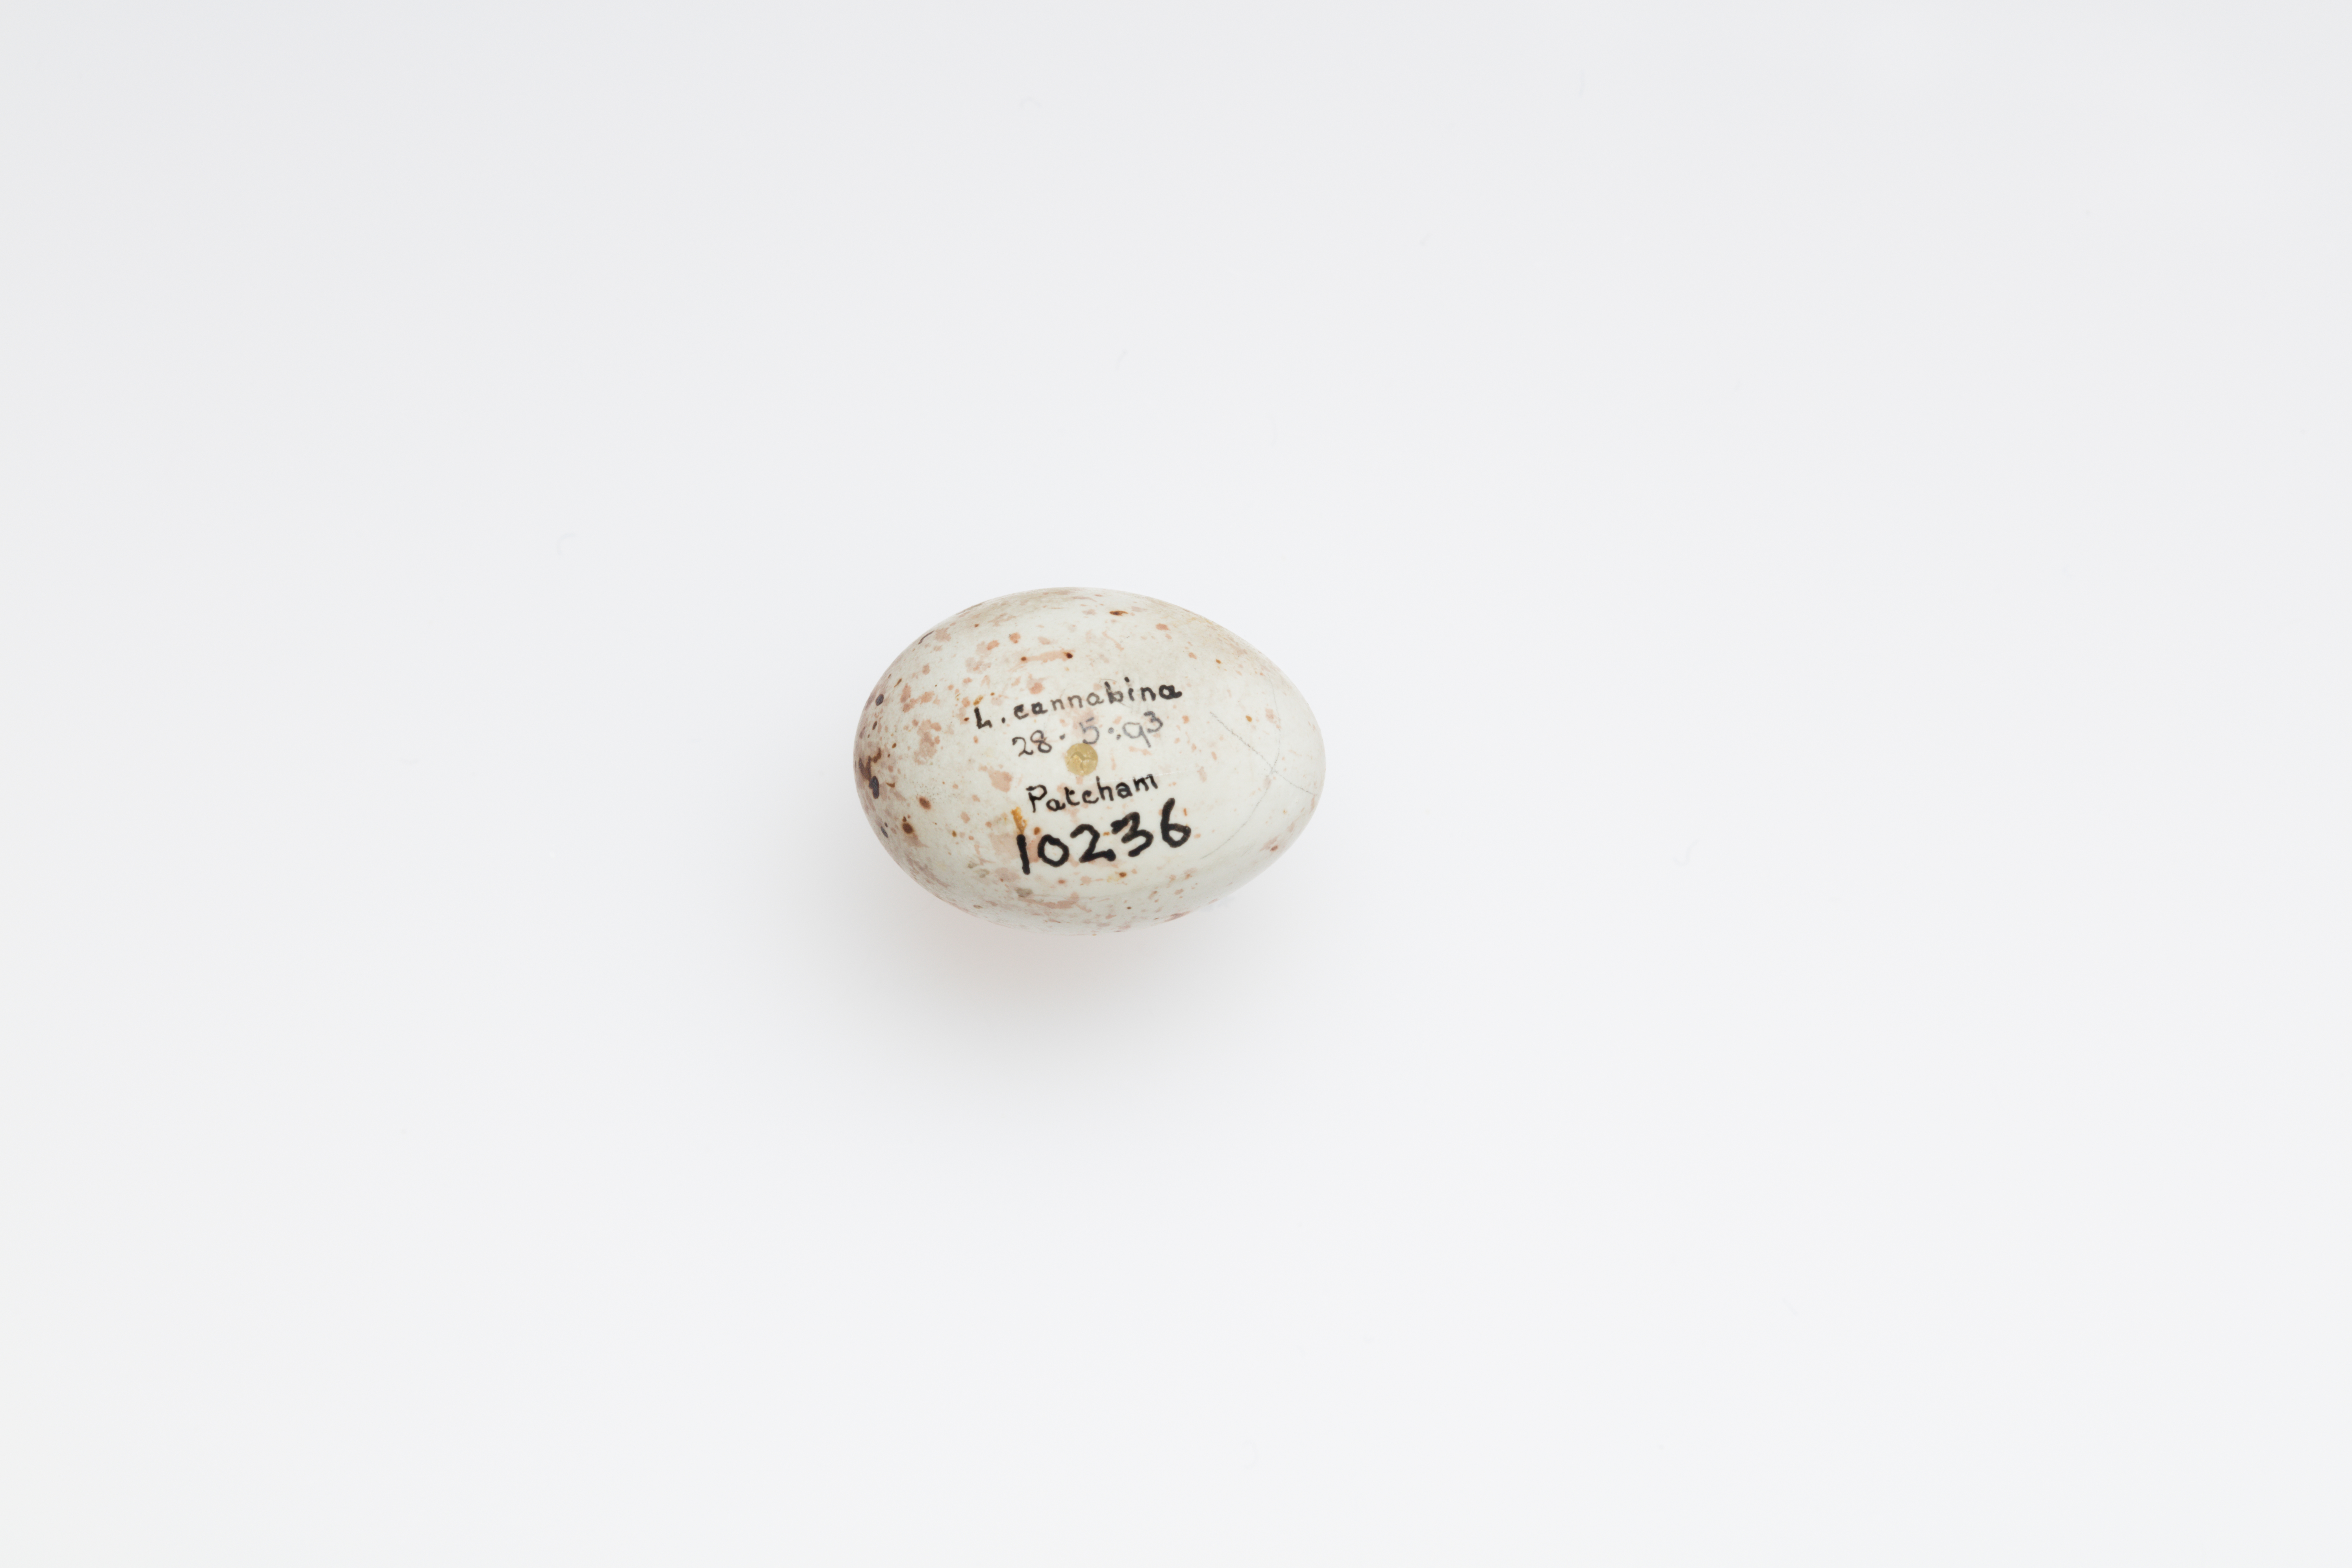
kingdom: Animalia
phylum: Chordata
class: Aves
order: Passeriformes
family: Fringillidae
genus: Linaria
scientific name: Linaria cannabina
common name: Common linnet
